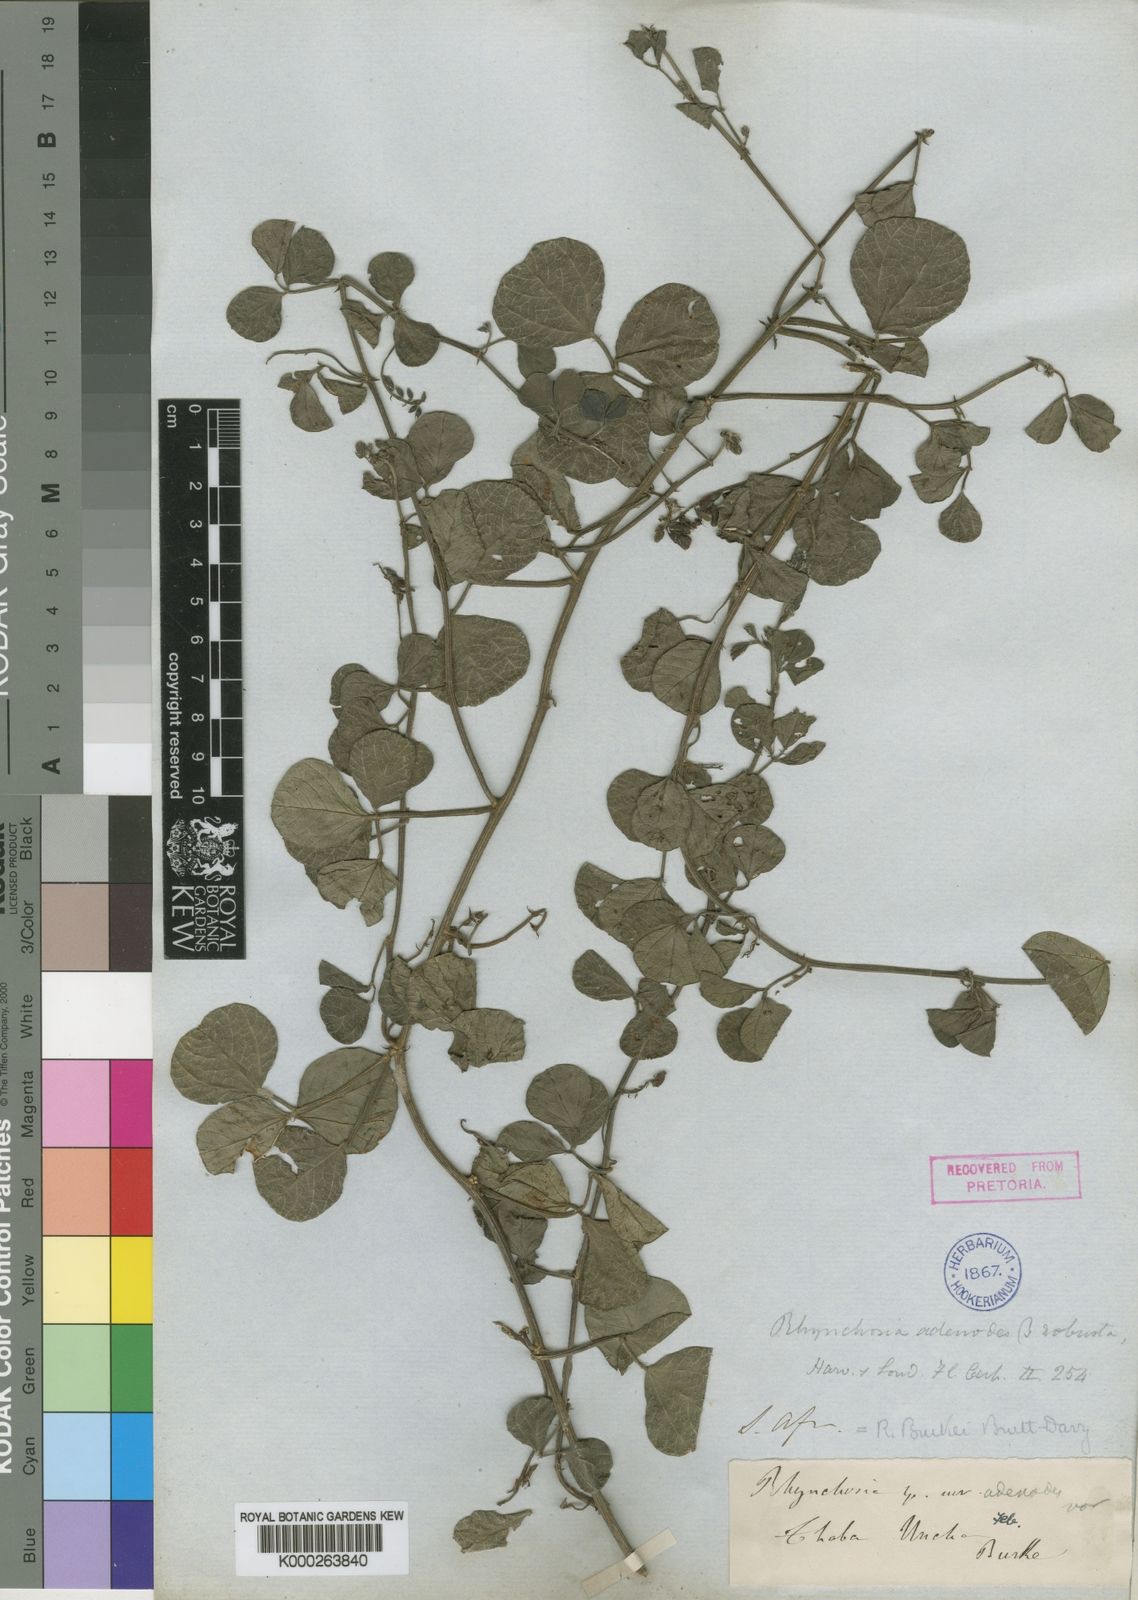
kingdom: Plantae
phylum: Tracheophyta
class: Magnoliopsida
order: Fabales
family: Fabaceae
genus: Rhynchosia
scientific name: Rhynchosia adenodes
